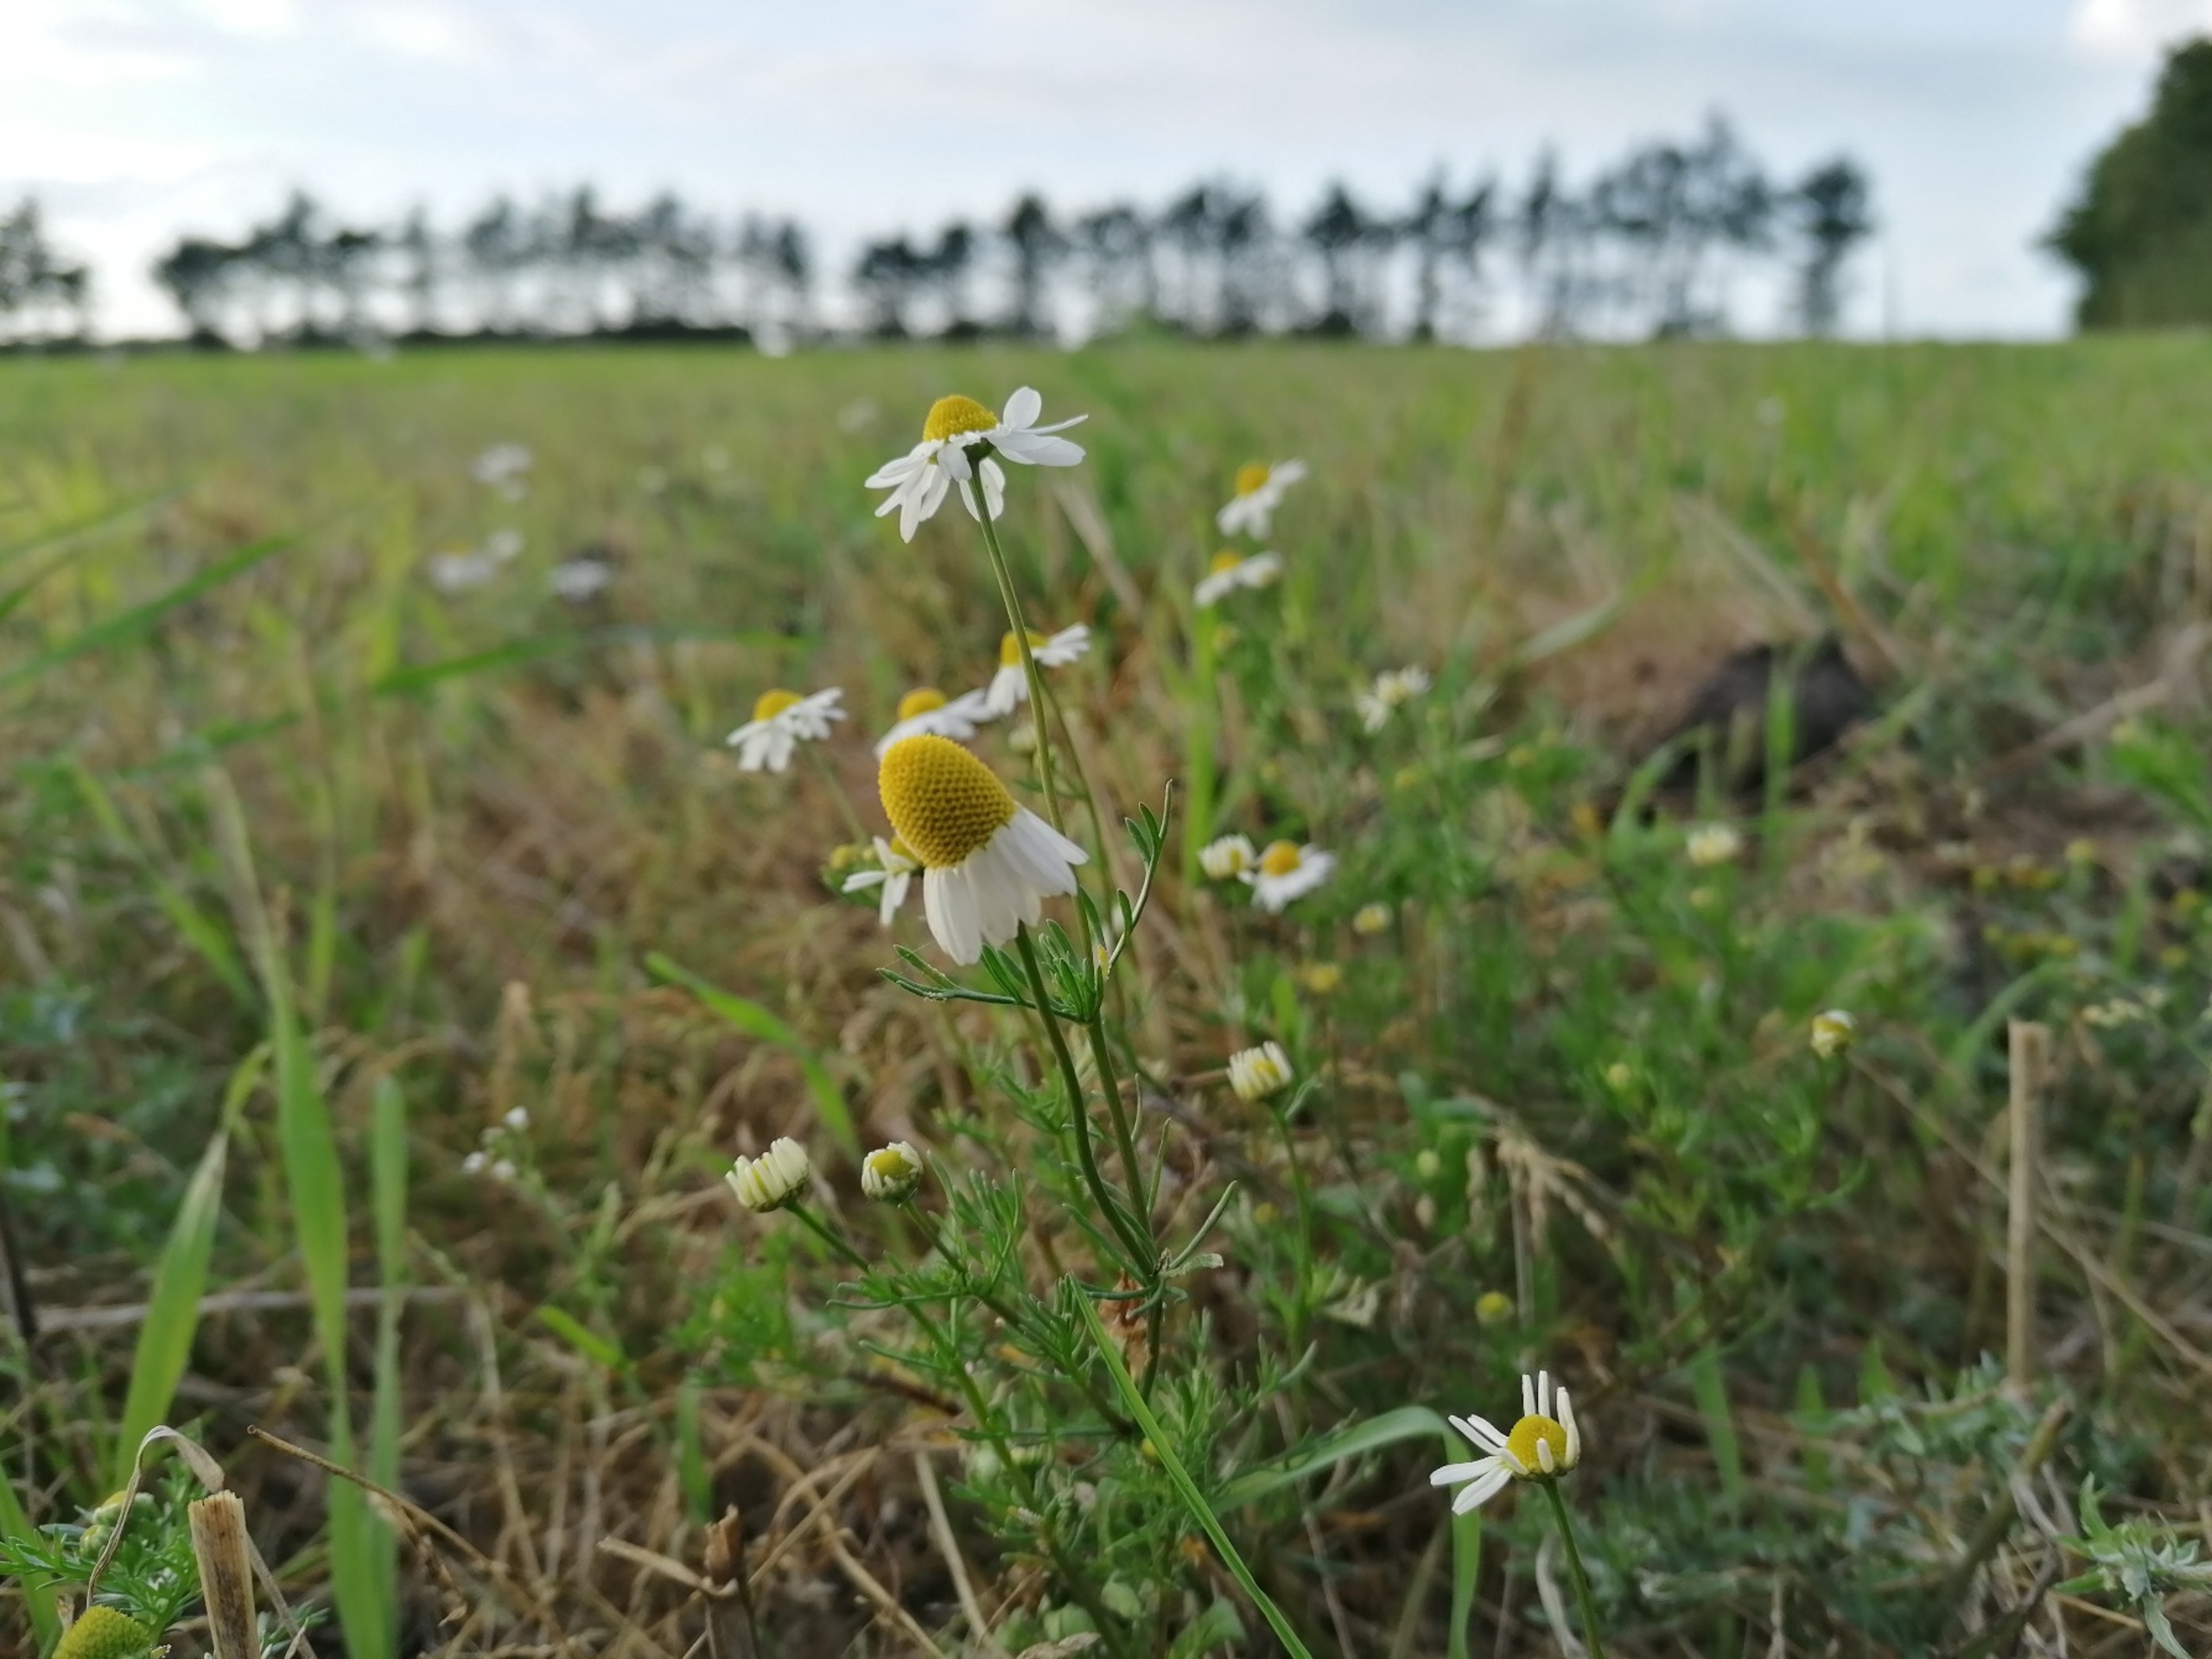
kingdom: Plantae
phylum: Tracheophyta
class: Magnoliopsida
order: Asterales
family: Asteraceae
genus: Matricaria
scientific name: Matricaria chamomilla
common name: Vellugtende kamille
